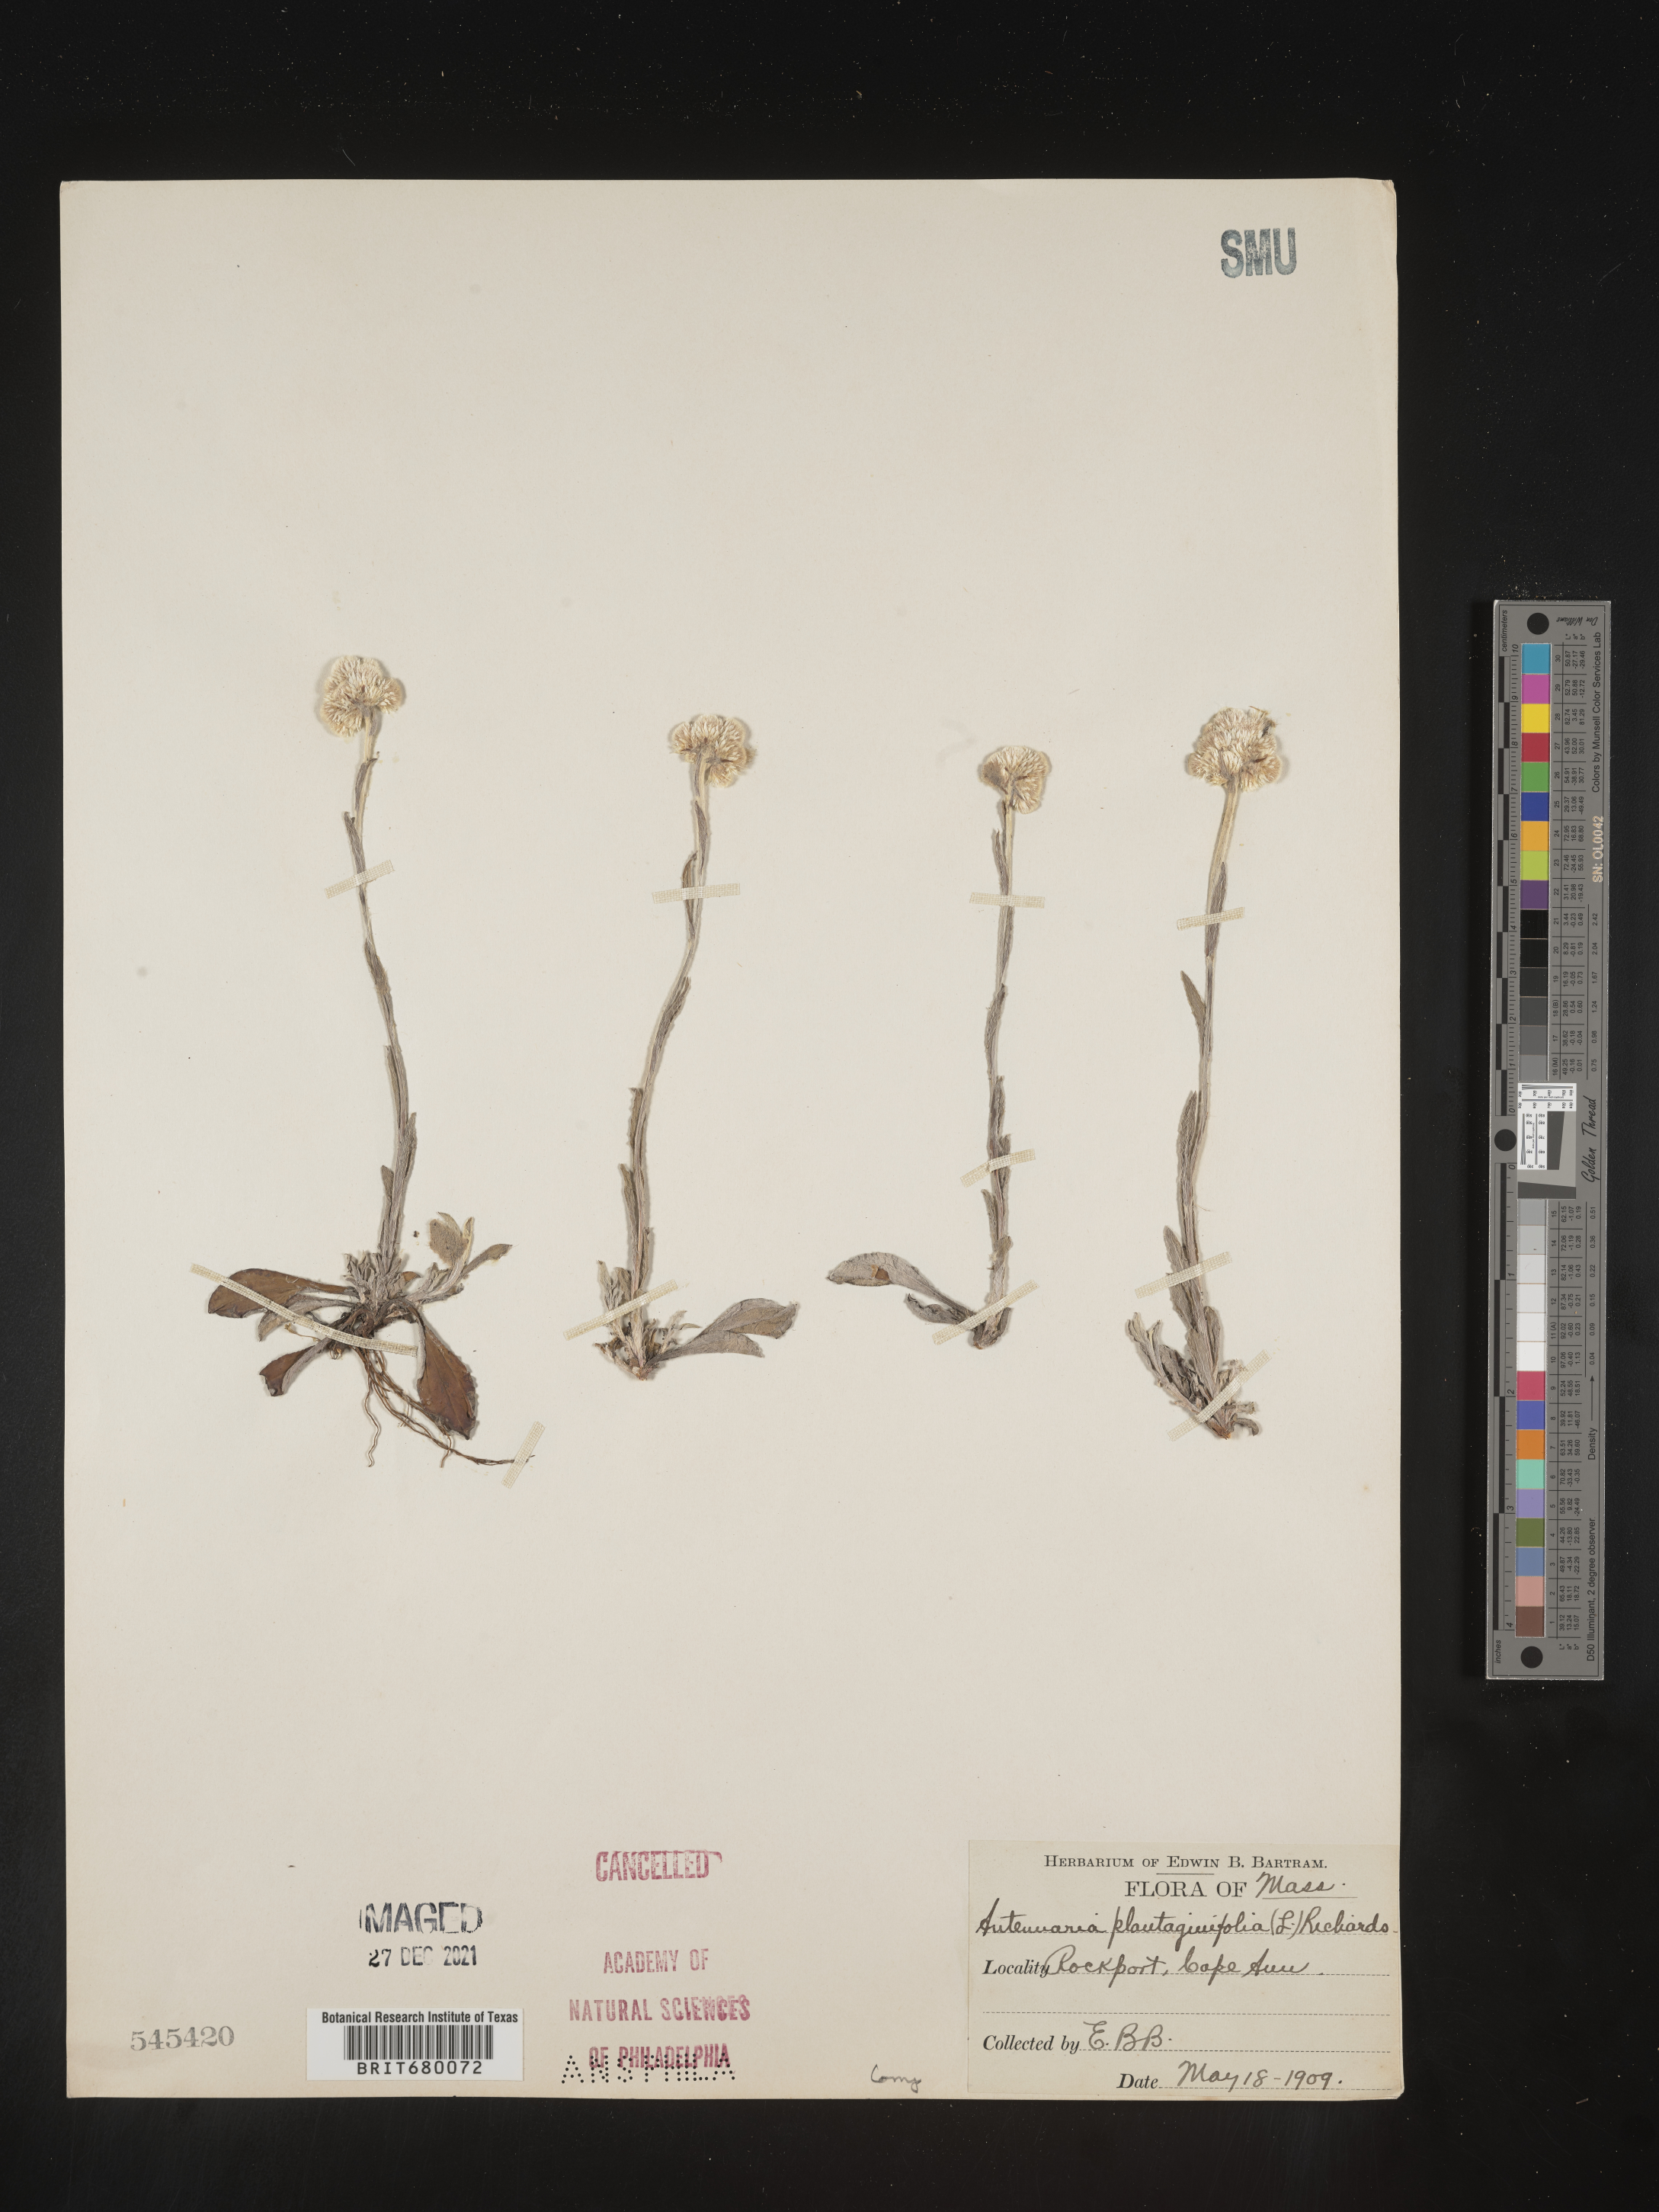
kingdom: Plantae
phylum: Tracheophyta
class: Magnoliopsida
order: Asterales
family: Asteraceae
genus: Antennaria
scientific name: Antennaria plantaginifolia
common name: Plantain-leaved pussytoes
